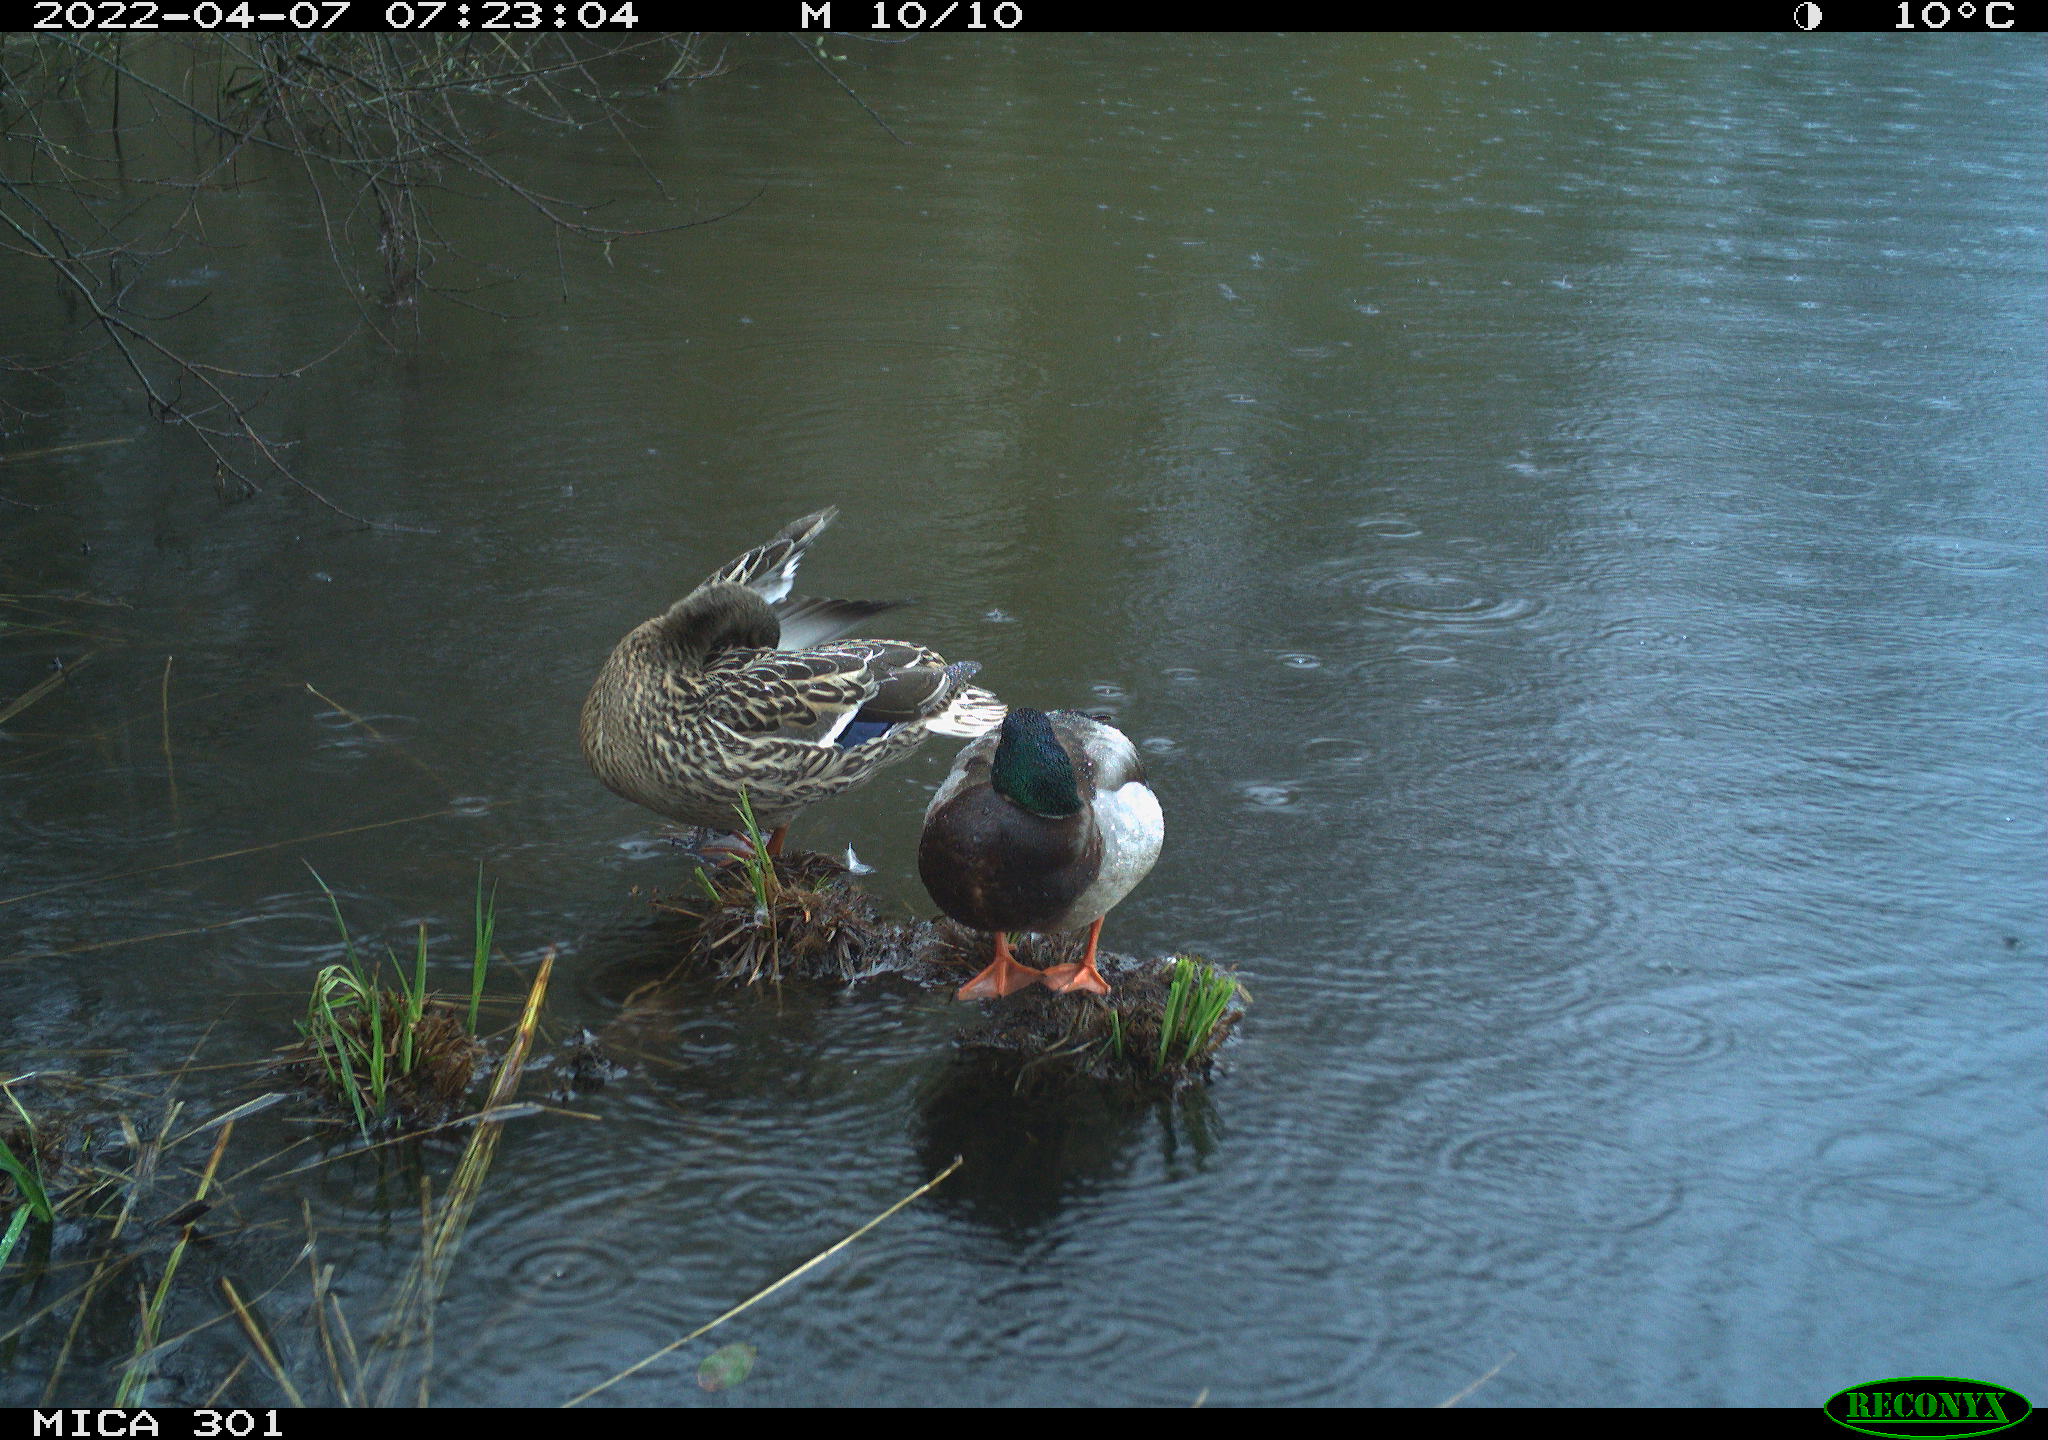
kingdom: Animalia
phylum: Chordata
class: Aves
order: Anseriformes
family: Anatidae
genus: Anas
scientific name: Anas platyrhynchos
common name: Mallard
